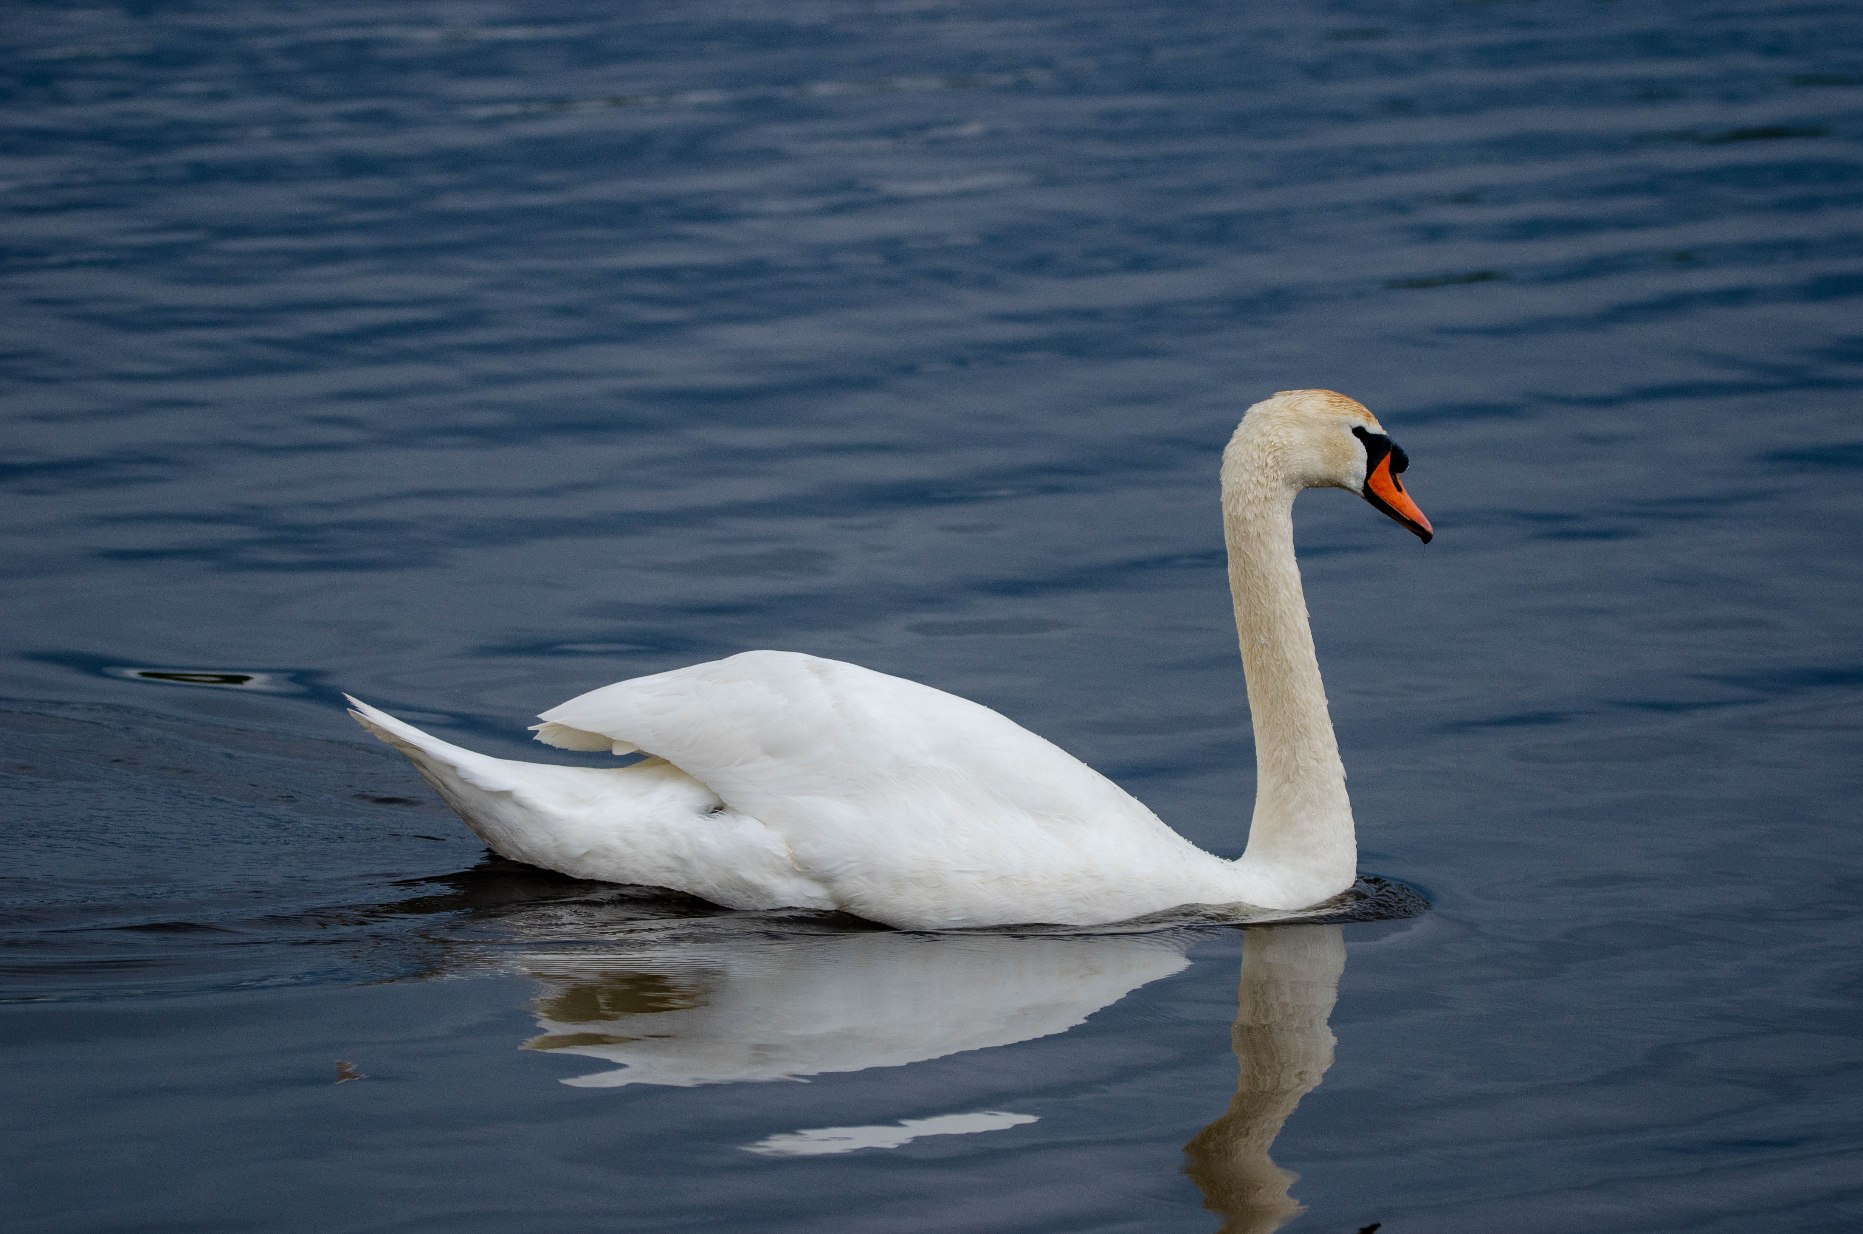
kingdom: Animalia
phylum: Chordata
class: Aves
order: Anseriformes
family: Anatidae
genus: Cygnus
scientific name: Cygnus olor
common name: Knopsvane
